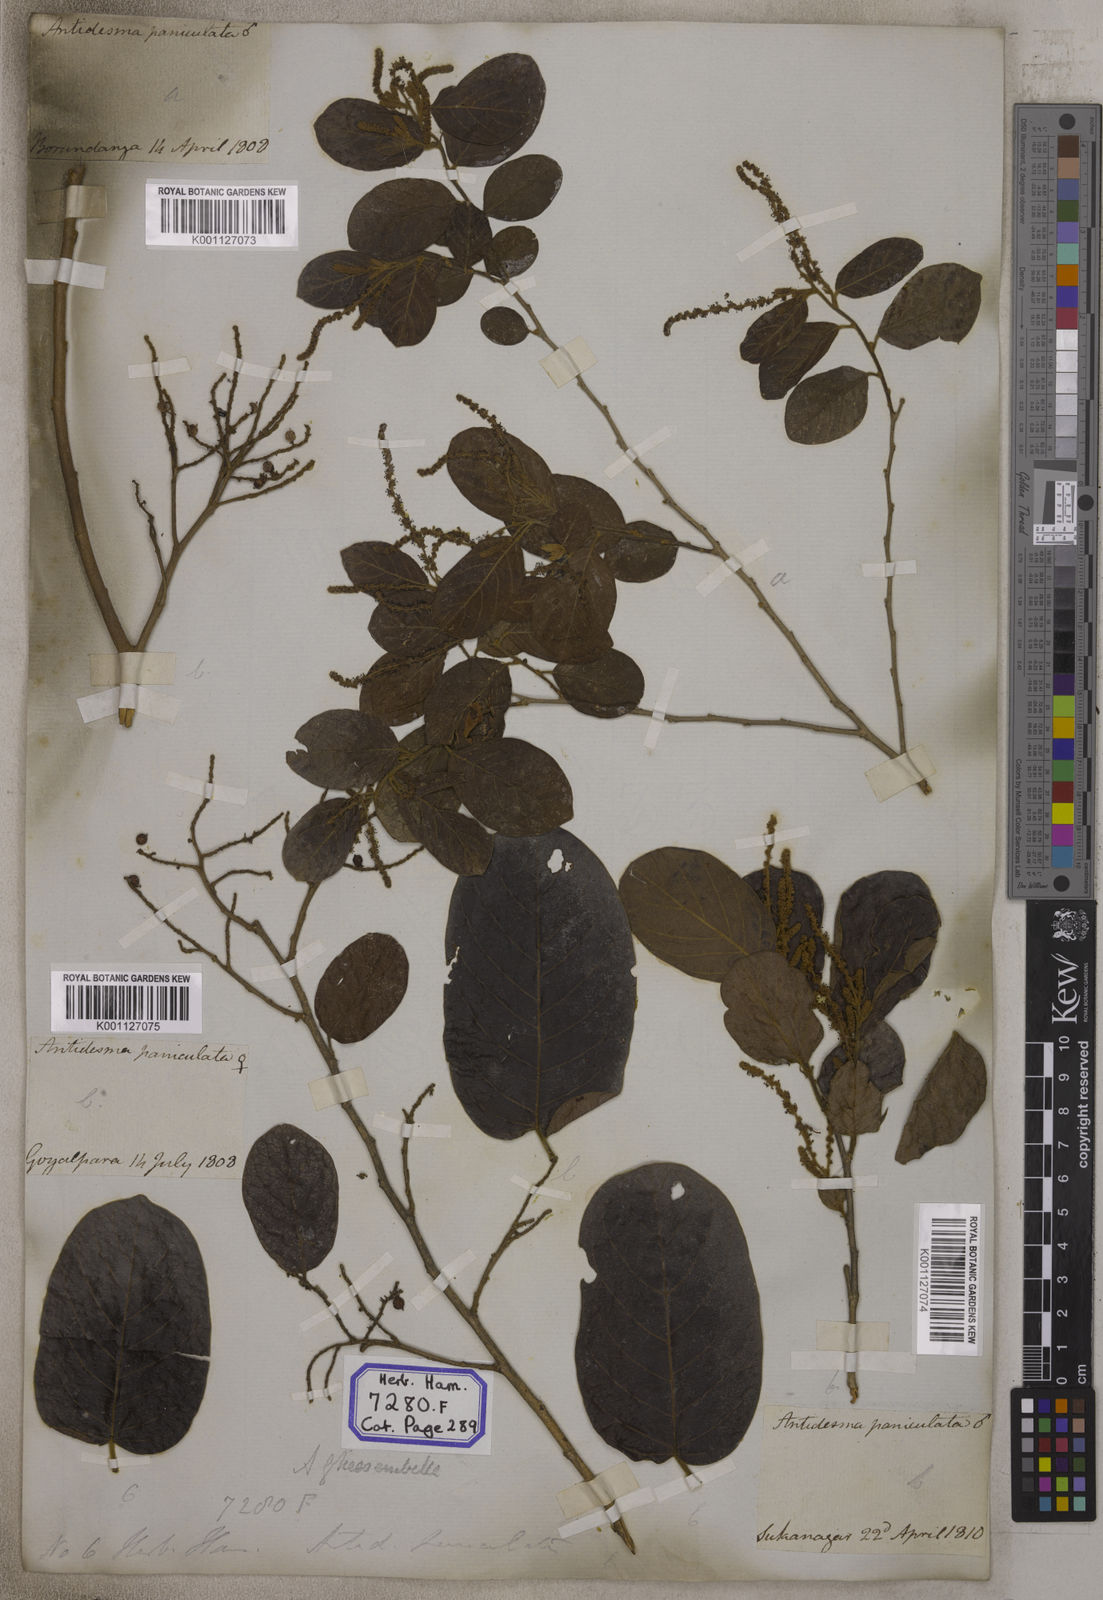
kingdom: Plantae
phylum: Tracheophyta
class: Magnoliopsida
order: Malpighiales
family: Phyllanthaceae
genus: Antidesma
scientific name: Antidesma
